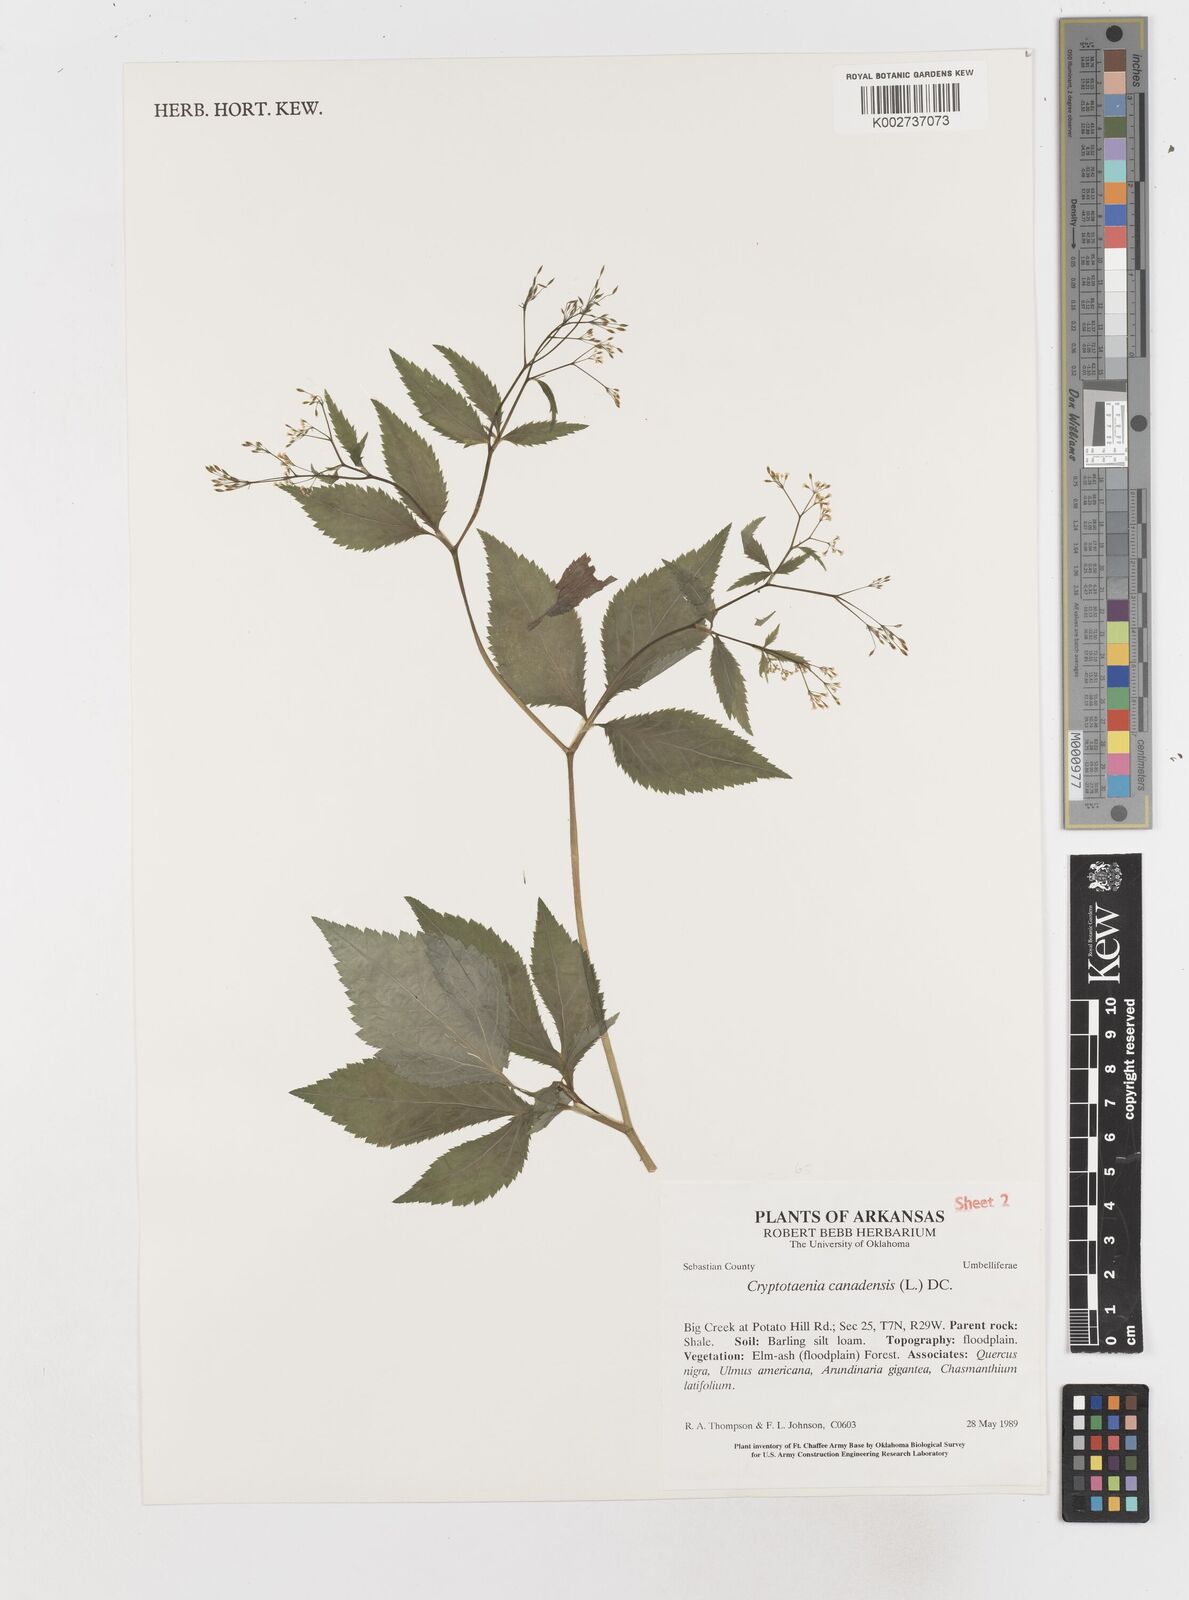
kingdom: Plantae
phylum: Tracheophyta
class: Magnoliopsida
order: Apiales
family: Apiaceae
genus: Cryptotaenia
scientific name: Cryptotaenia canadensis
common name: Honewort
